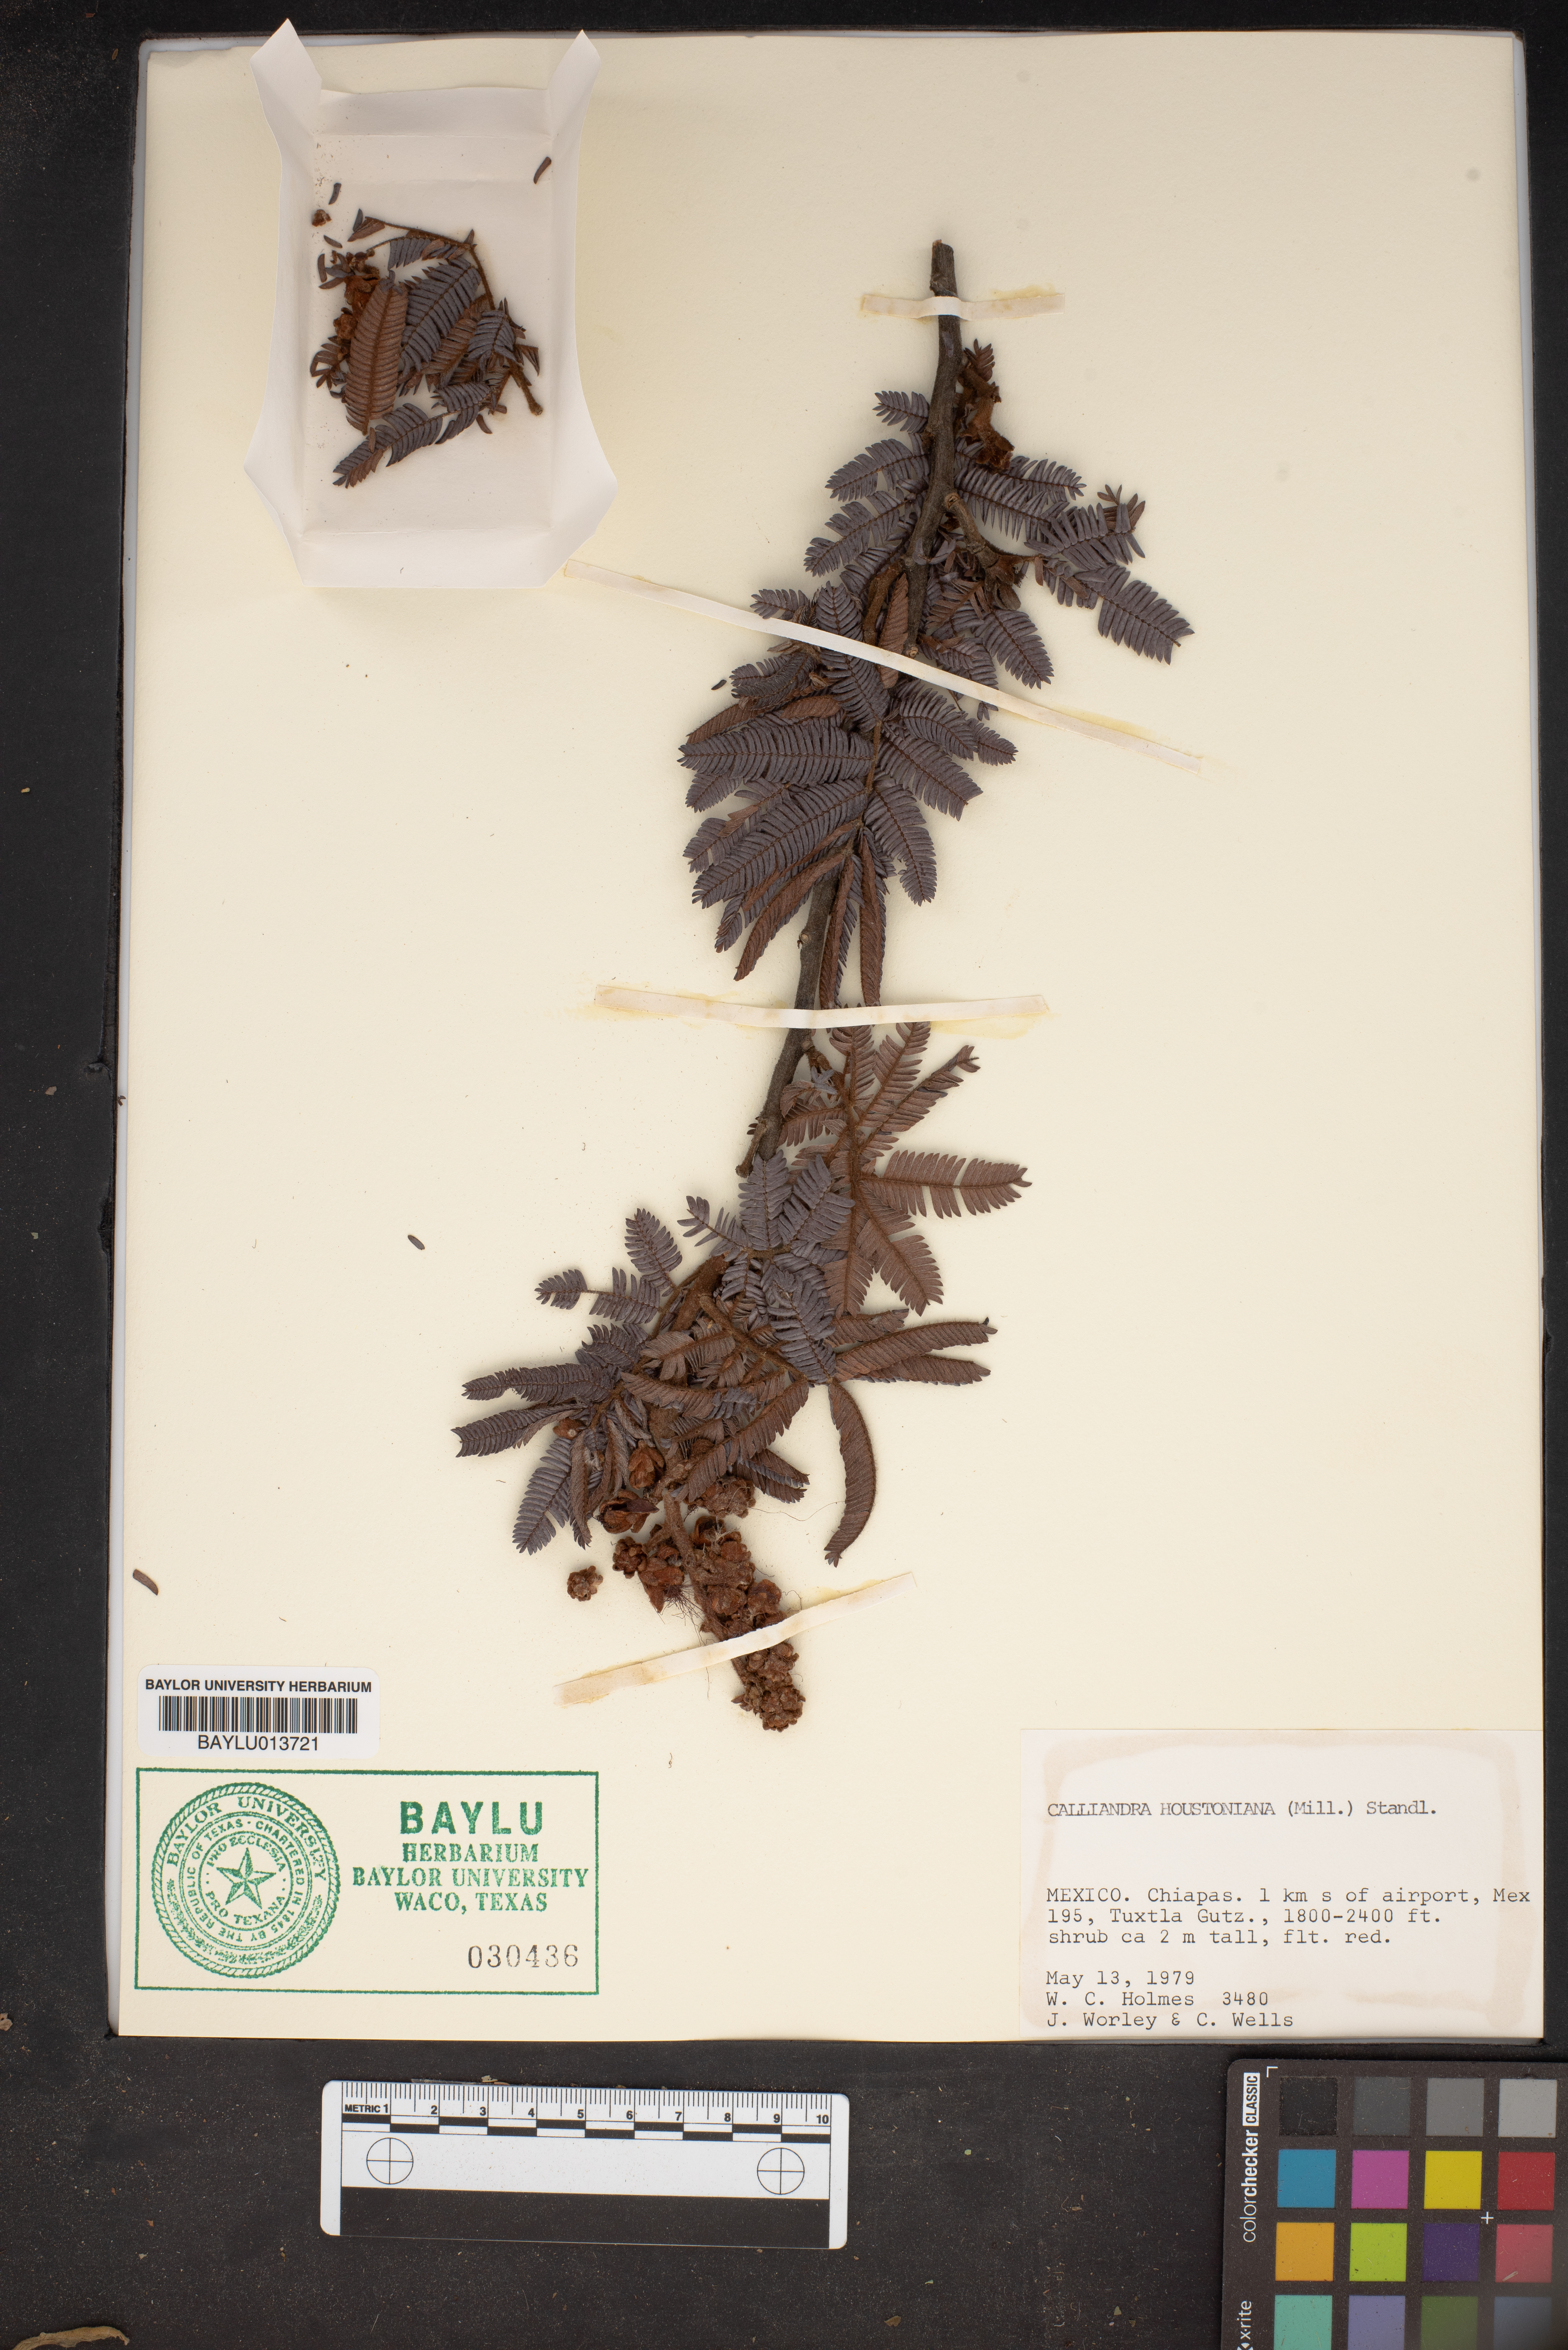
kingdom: Plantae
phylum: Tracheophyta
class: Magnoliopsida
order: Fabales
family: Fabaceae
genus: Calliandra
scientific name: Calliandra houstoniana
